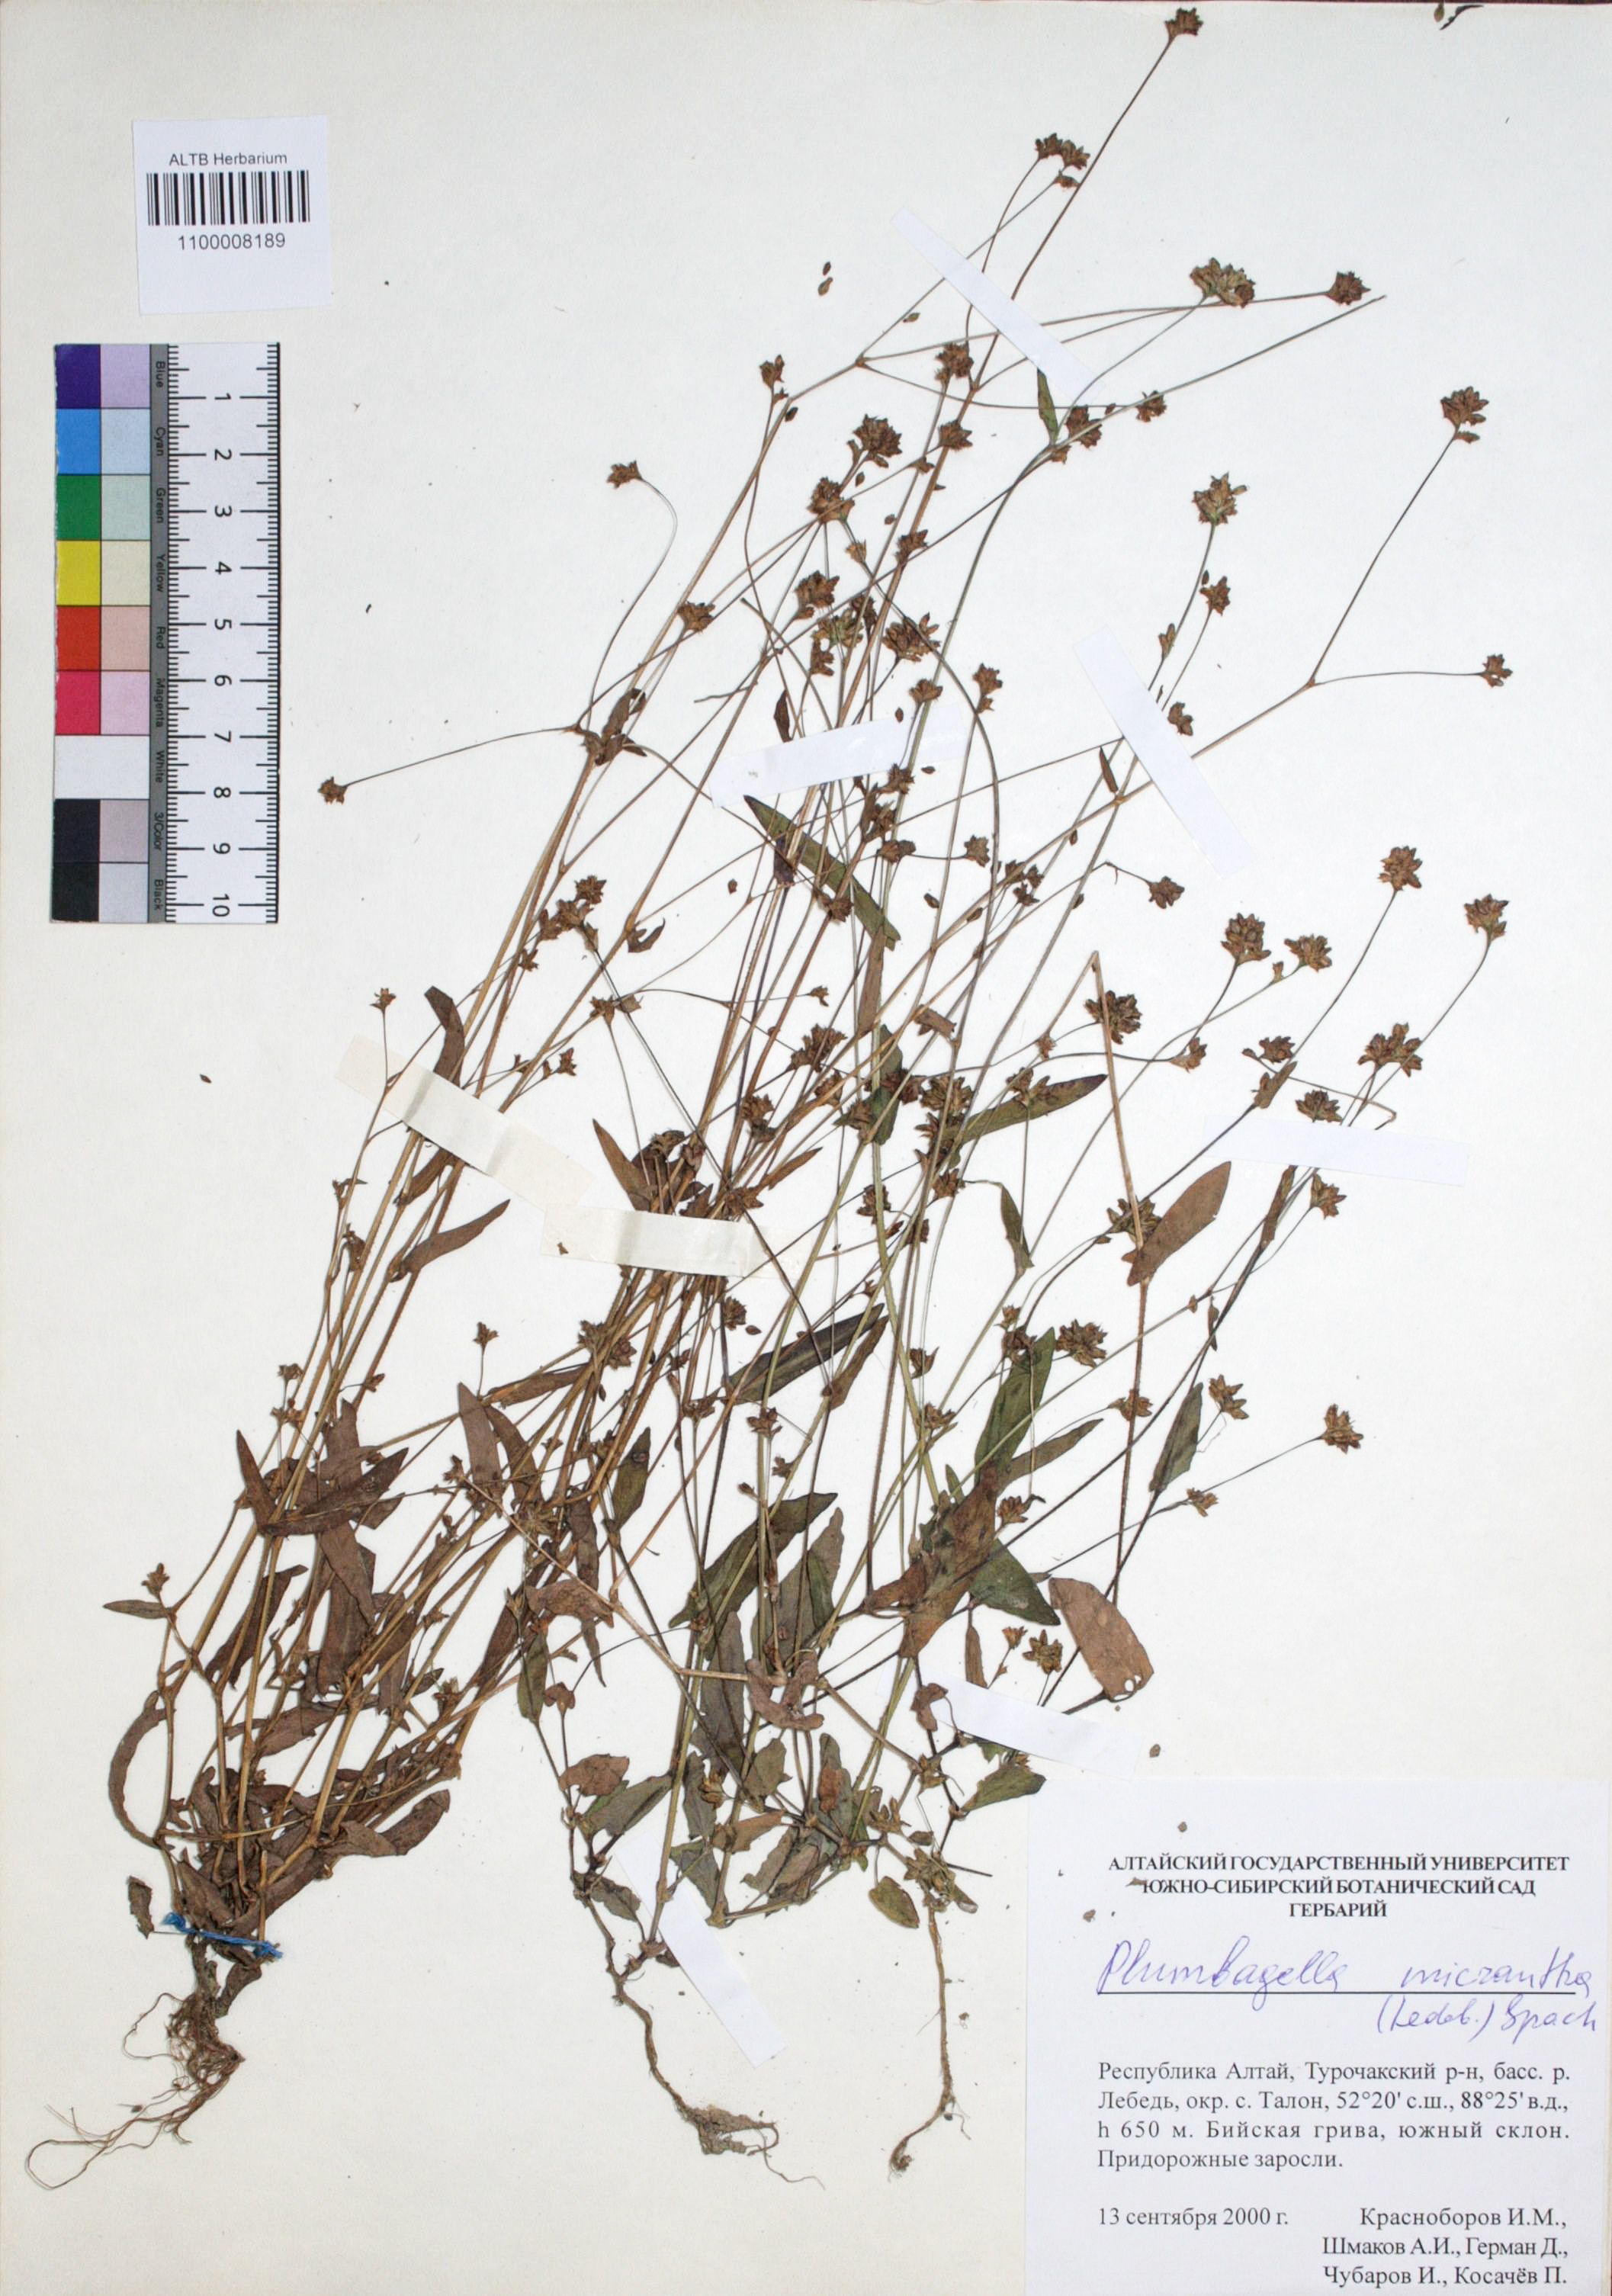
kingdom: Plantae
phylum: Tracheophyta
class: Magnoliopsida
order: Caryophyllales
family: Plumbaginaceae
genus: Plumbagella
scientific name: Plumbagella micrantha
